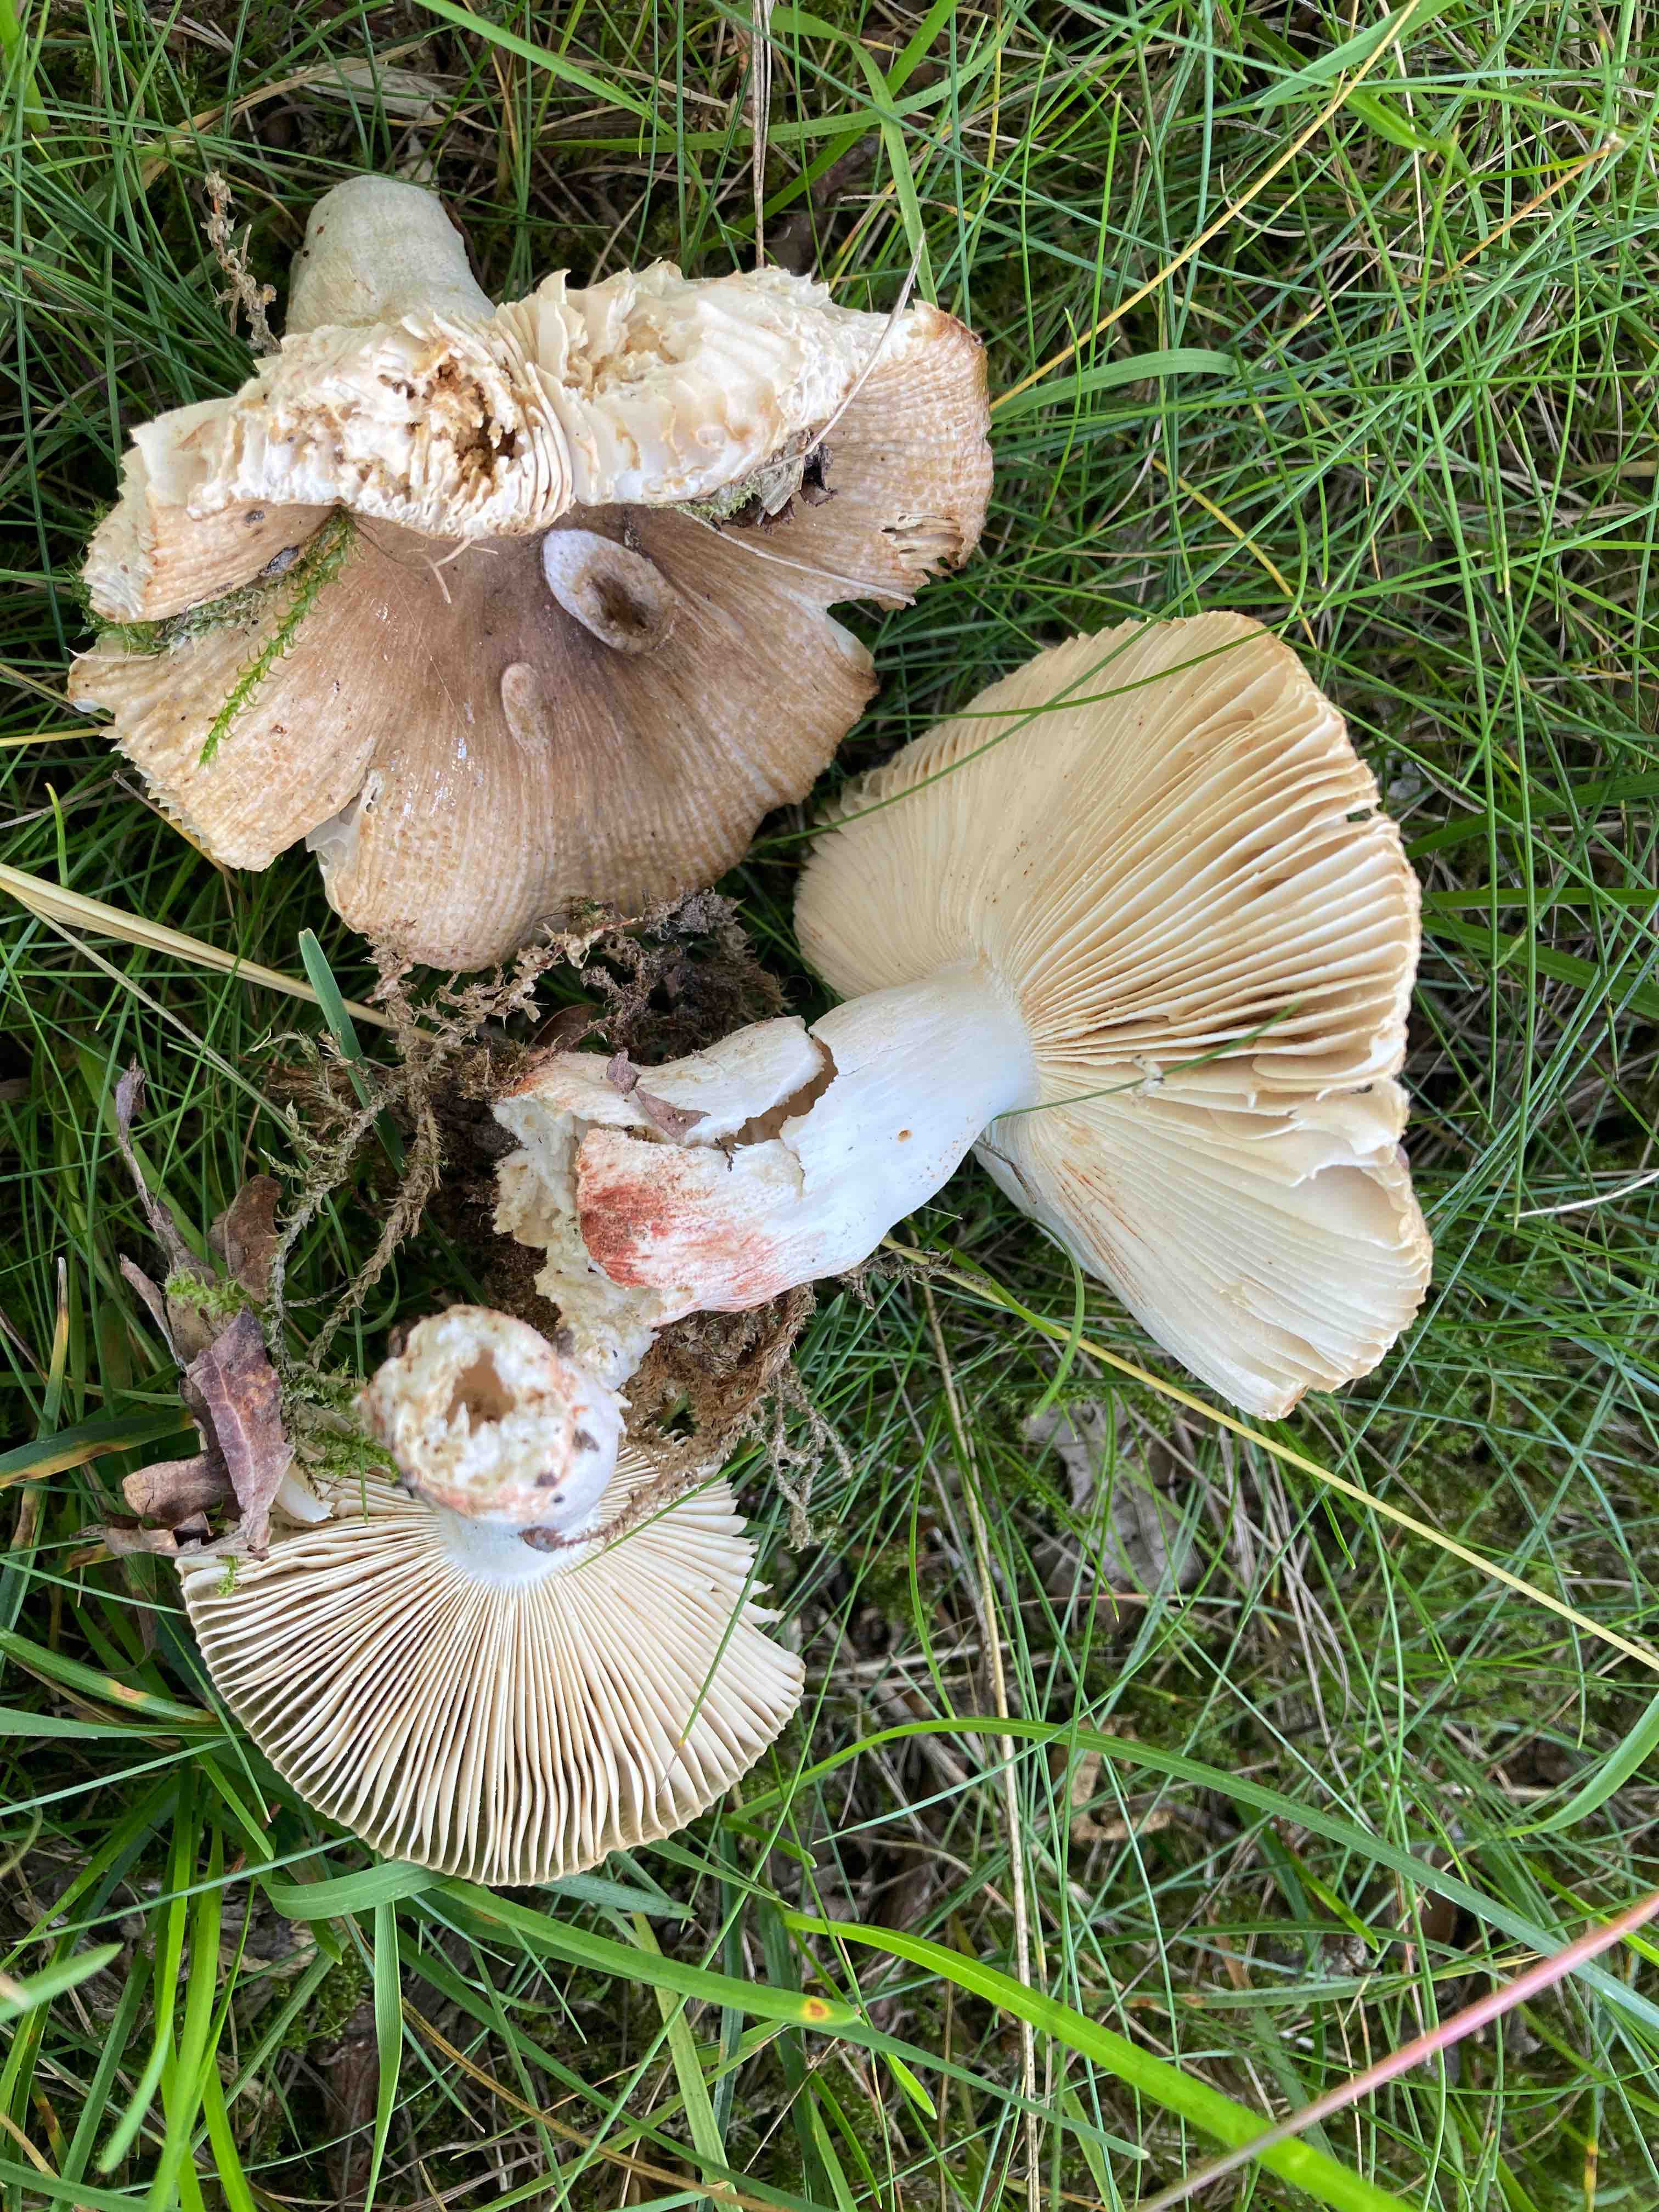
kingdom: Fungi
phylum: Basidiomycota
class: Agaricomycetes
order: Russulales
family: Russulaceae
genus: Russula
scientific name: Russula recondita
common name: mild kam-skørhat
